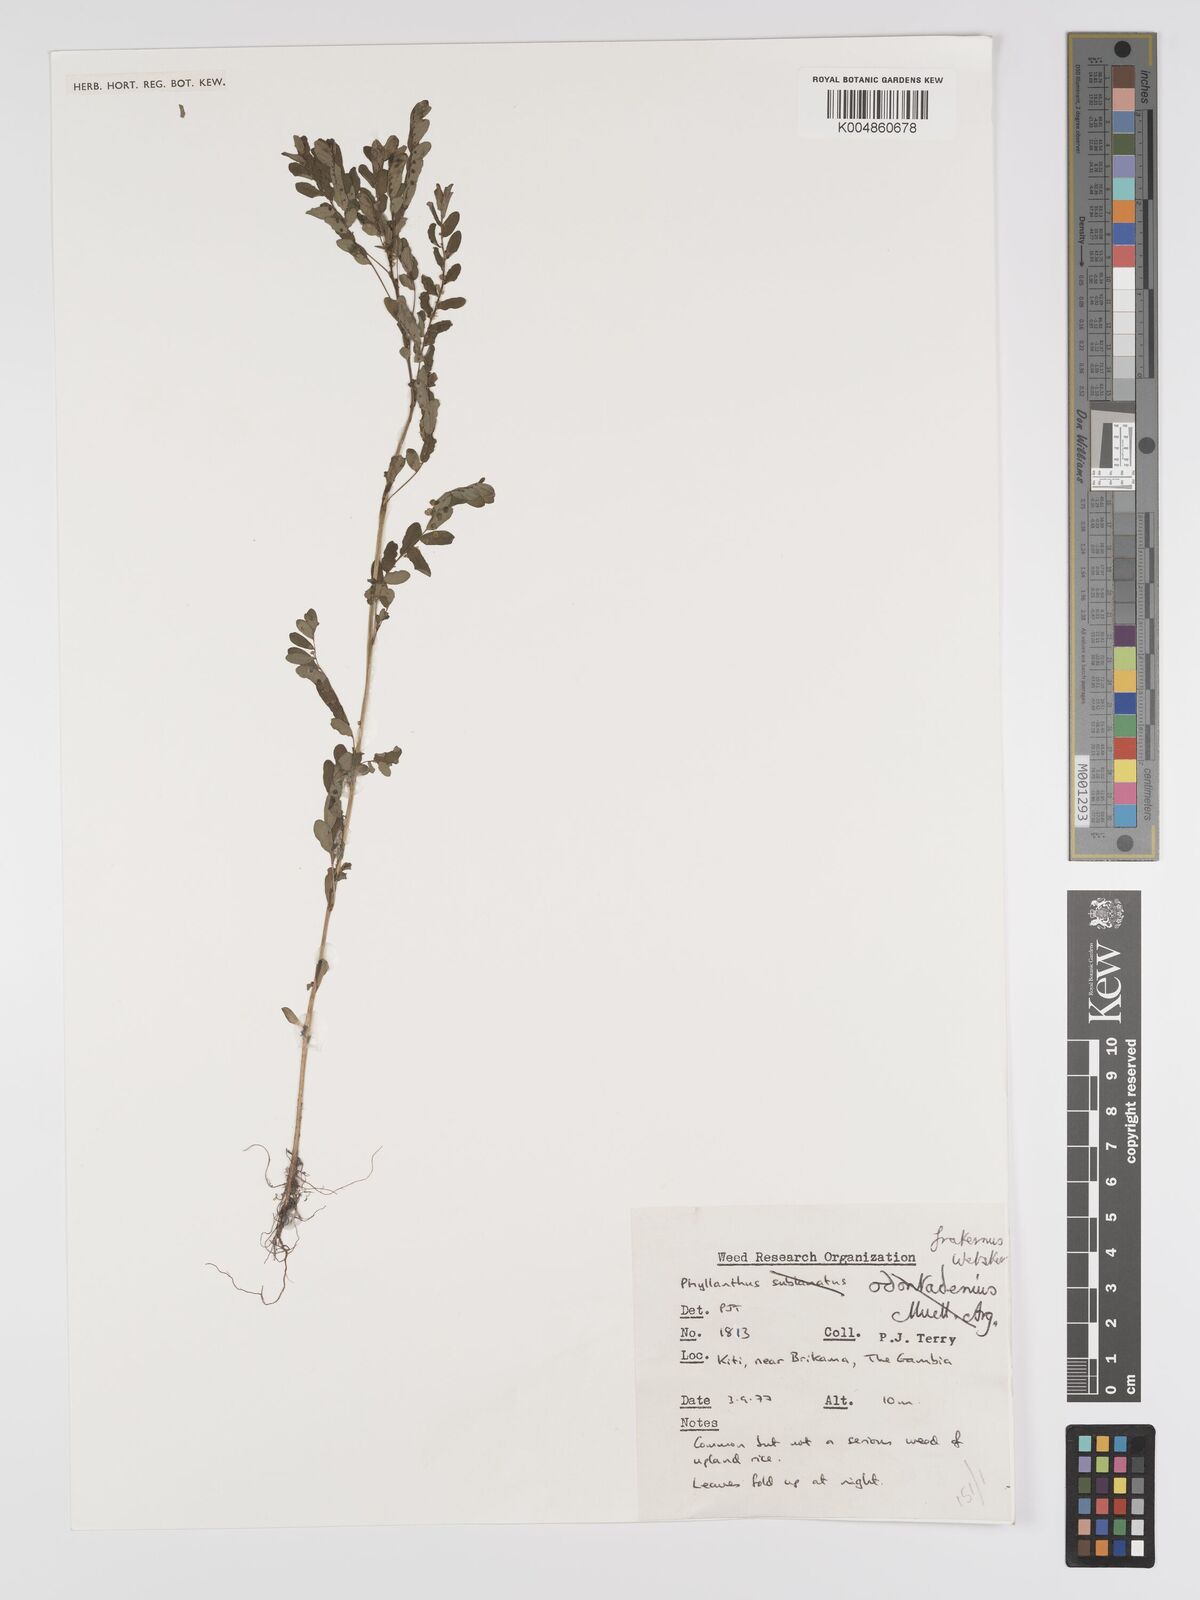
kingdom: Plantae
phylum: Tracheophyta
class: Magnoliopsida
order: Malpighiales
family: Phyllanthaceae
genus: Phyllanthus
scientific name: Phyllanthus fraternus
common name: Gulf leaf-flower
